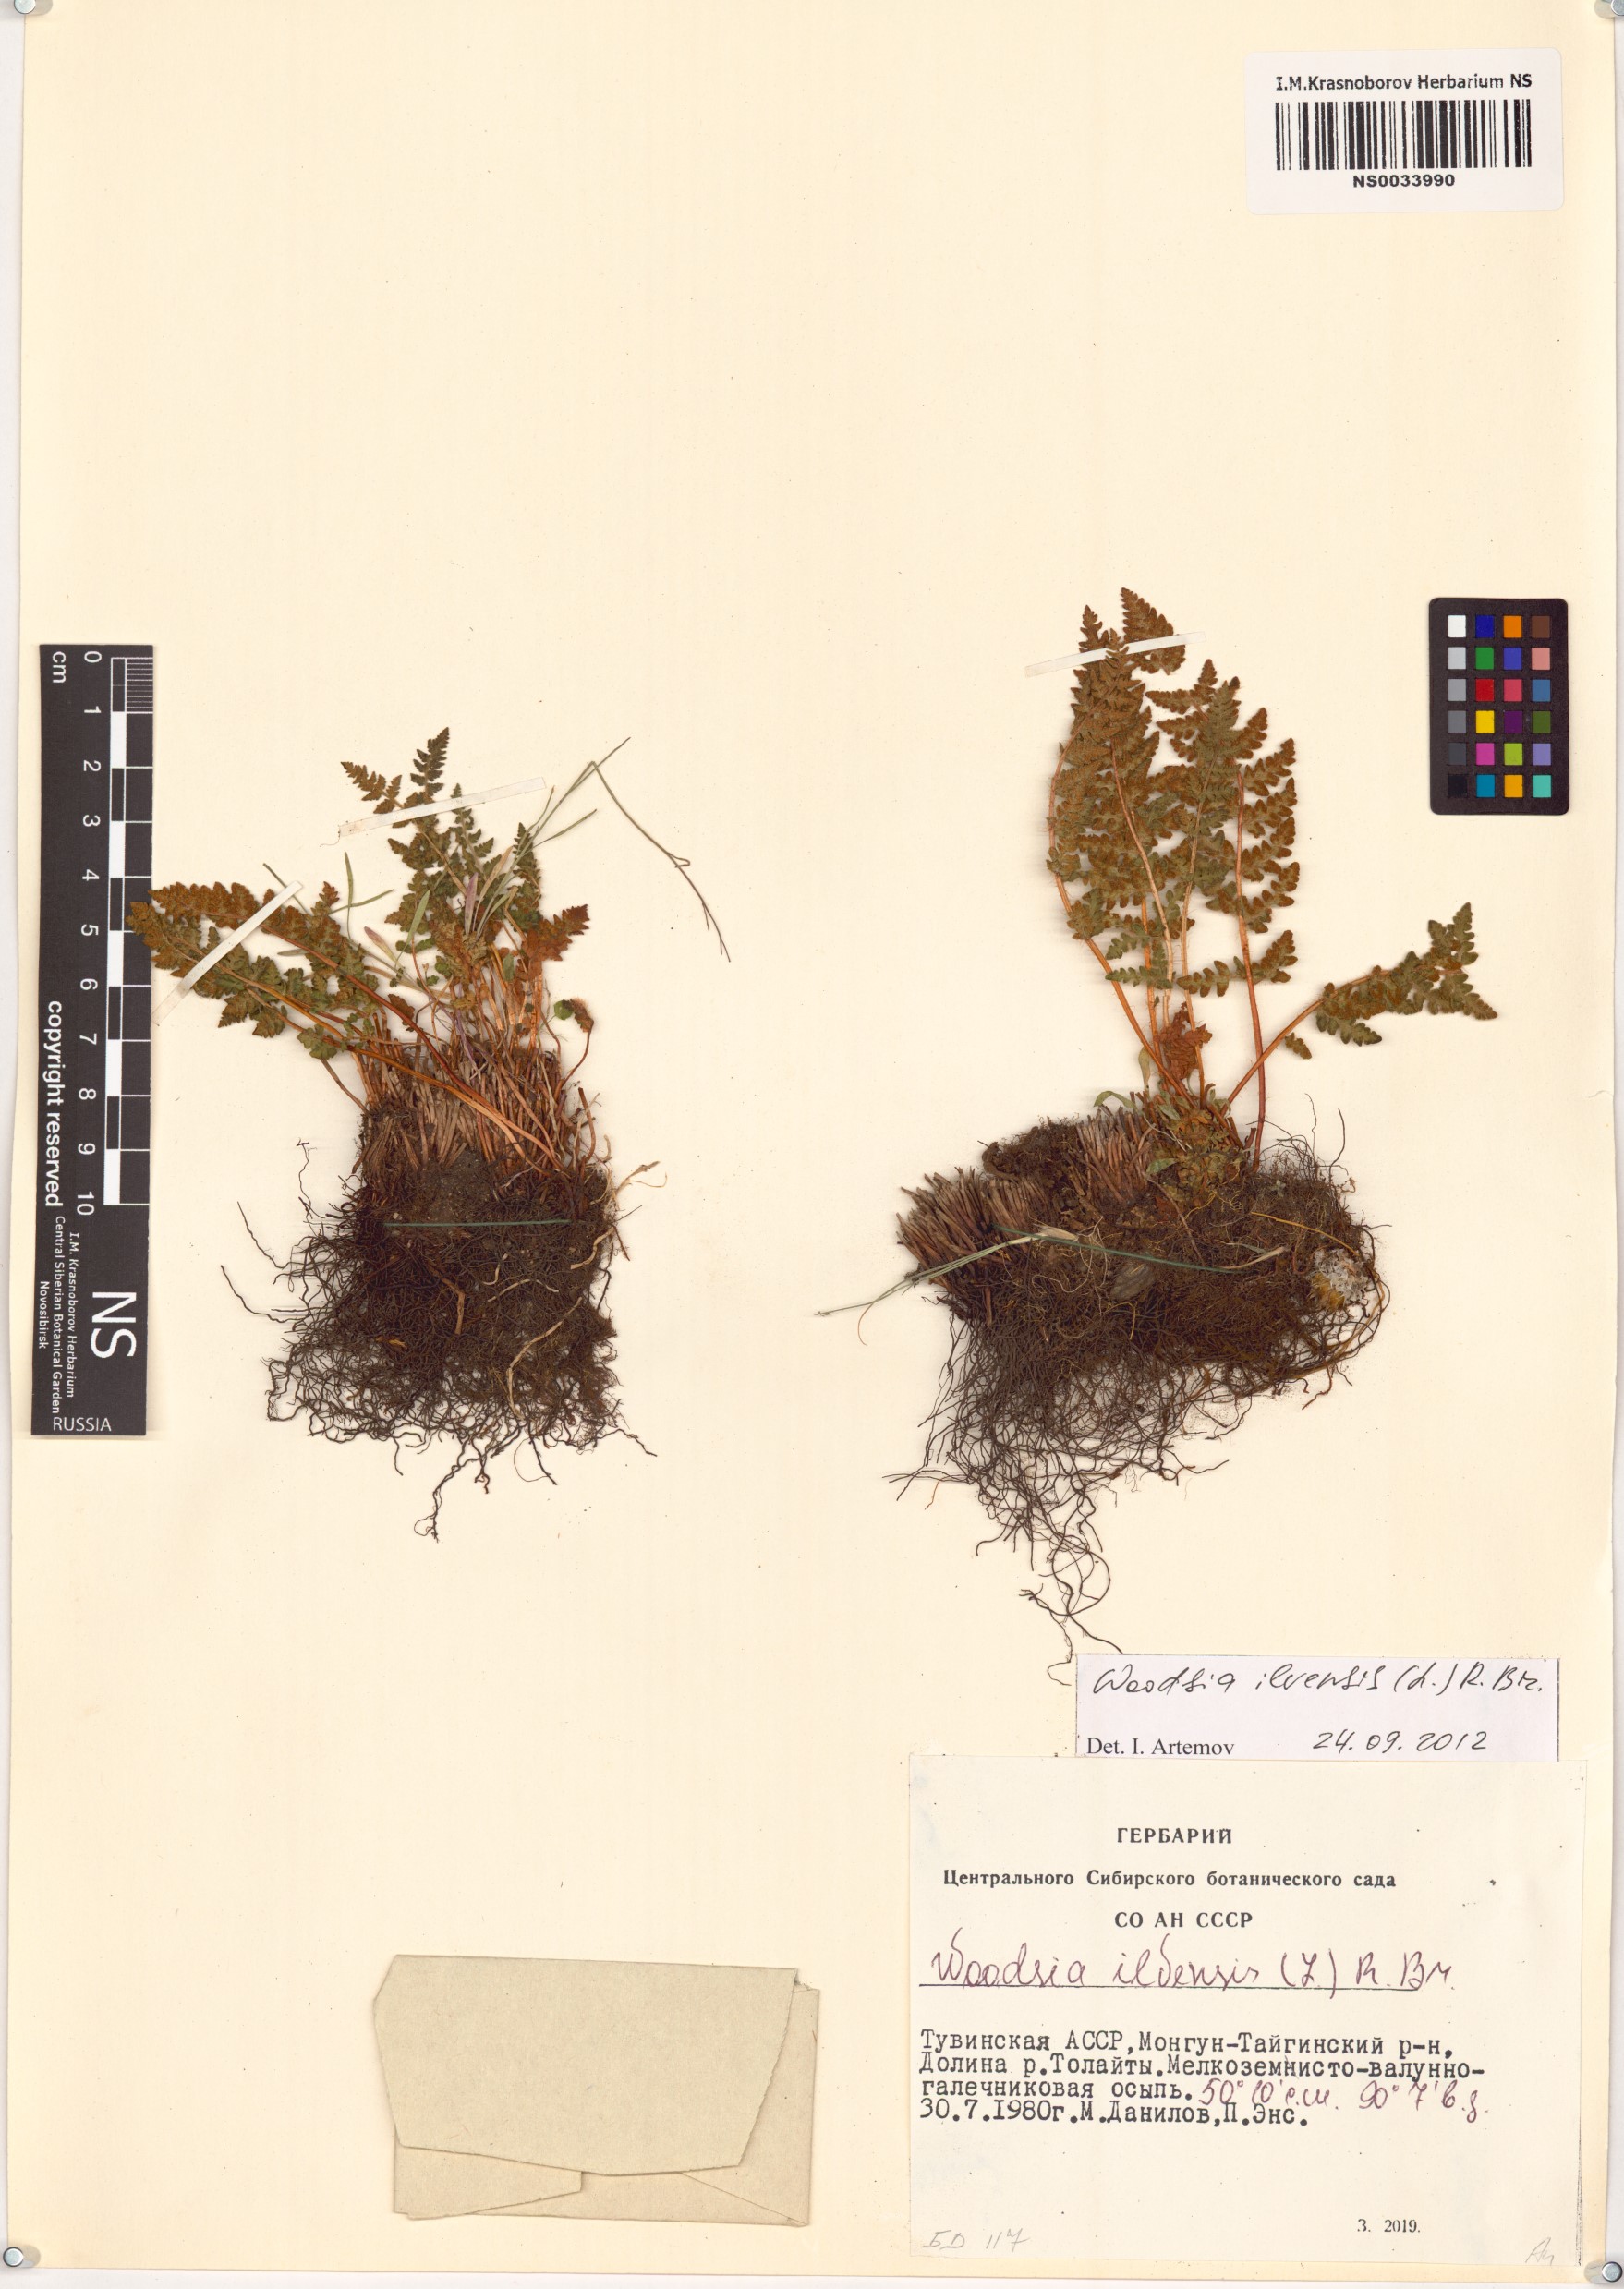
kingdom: Plantae
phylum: Tracheophyta
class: Polypodiopsida
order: Polypodiales
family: Woodsiaceae
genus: Woodsia
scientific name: Woodsia ilvensis
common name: Fragrant woodsia
